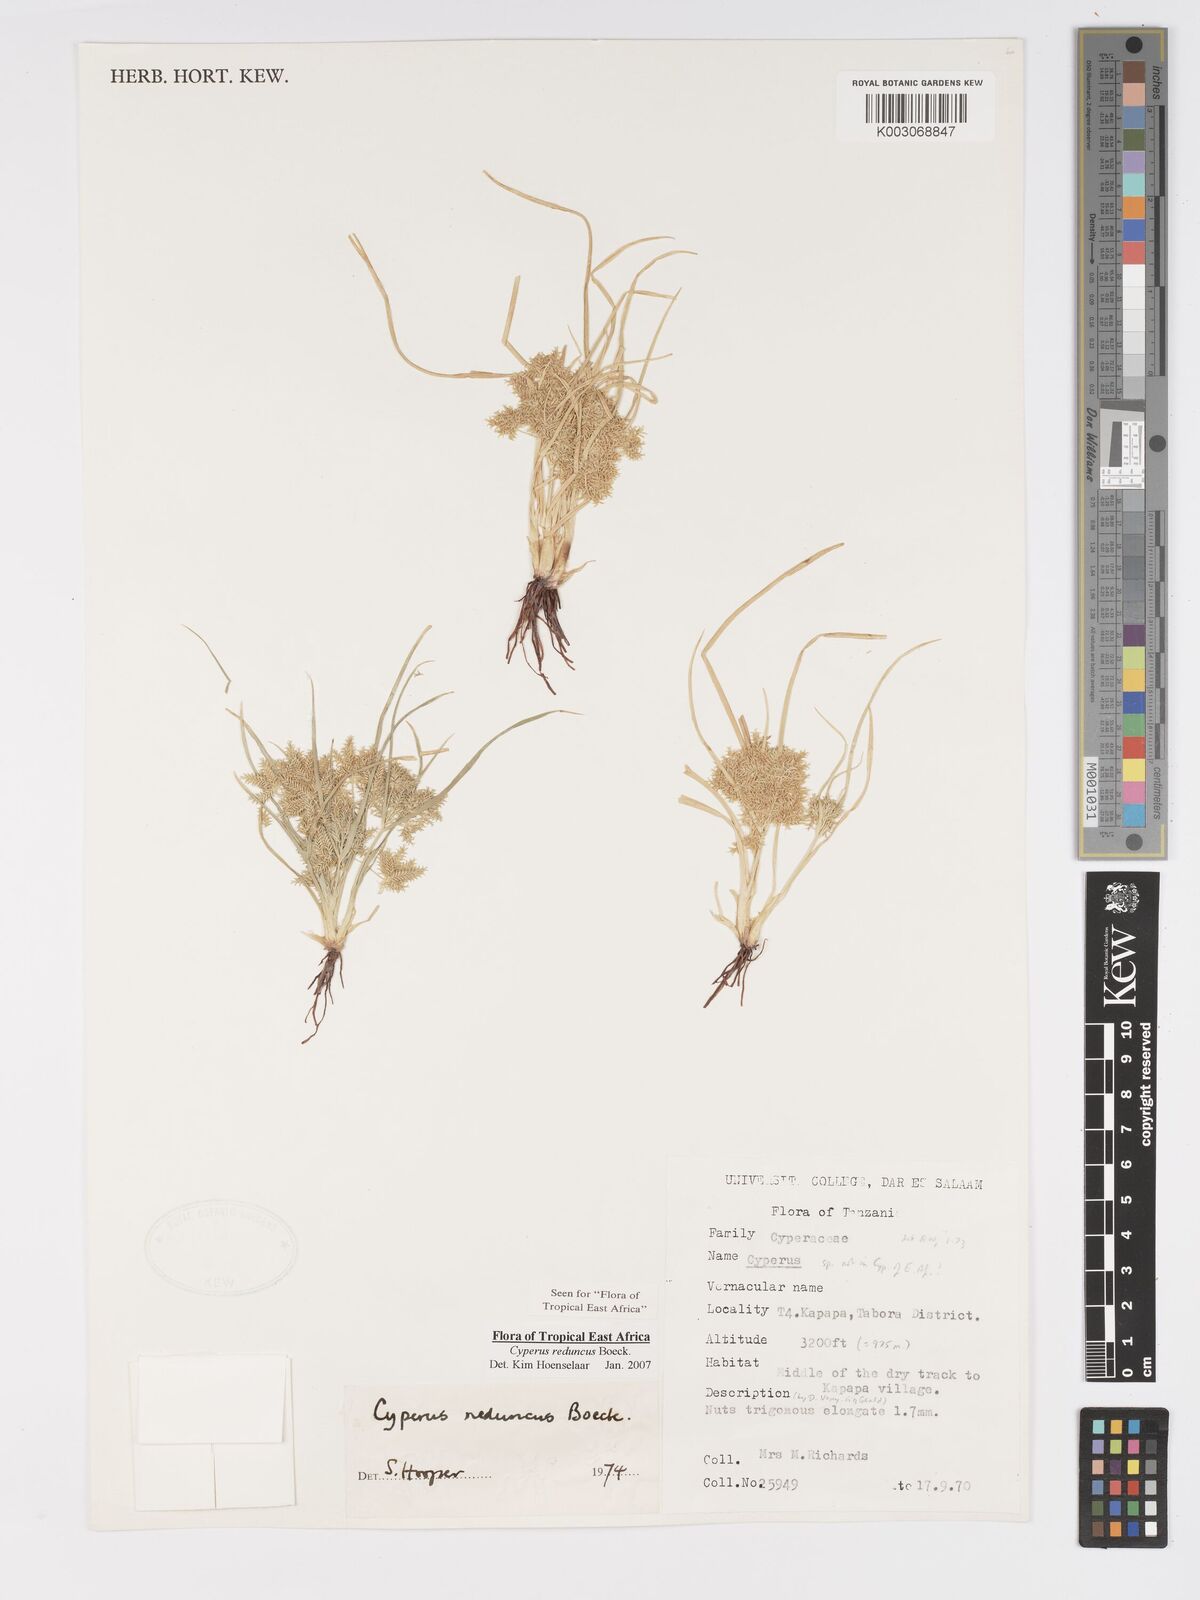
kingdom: Plantae
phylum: Tracheophyta
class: Liliopsida
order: Poales
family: Cyperaceae
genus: Cyperus
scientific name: Cyperus reduncus
